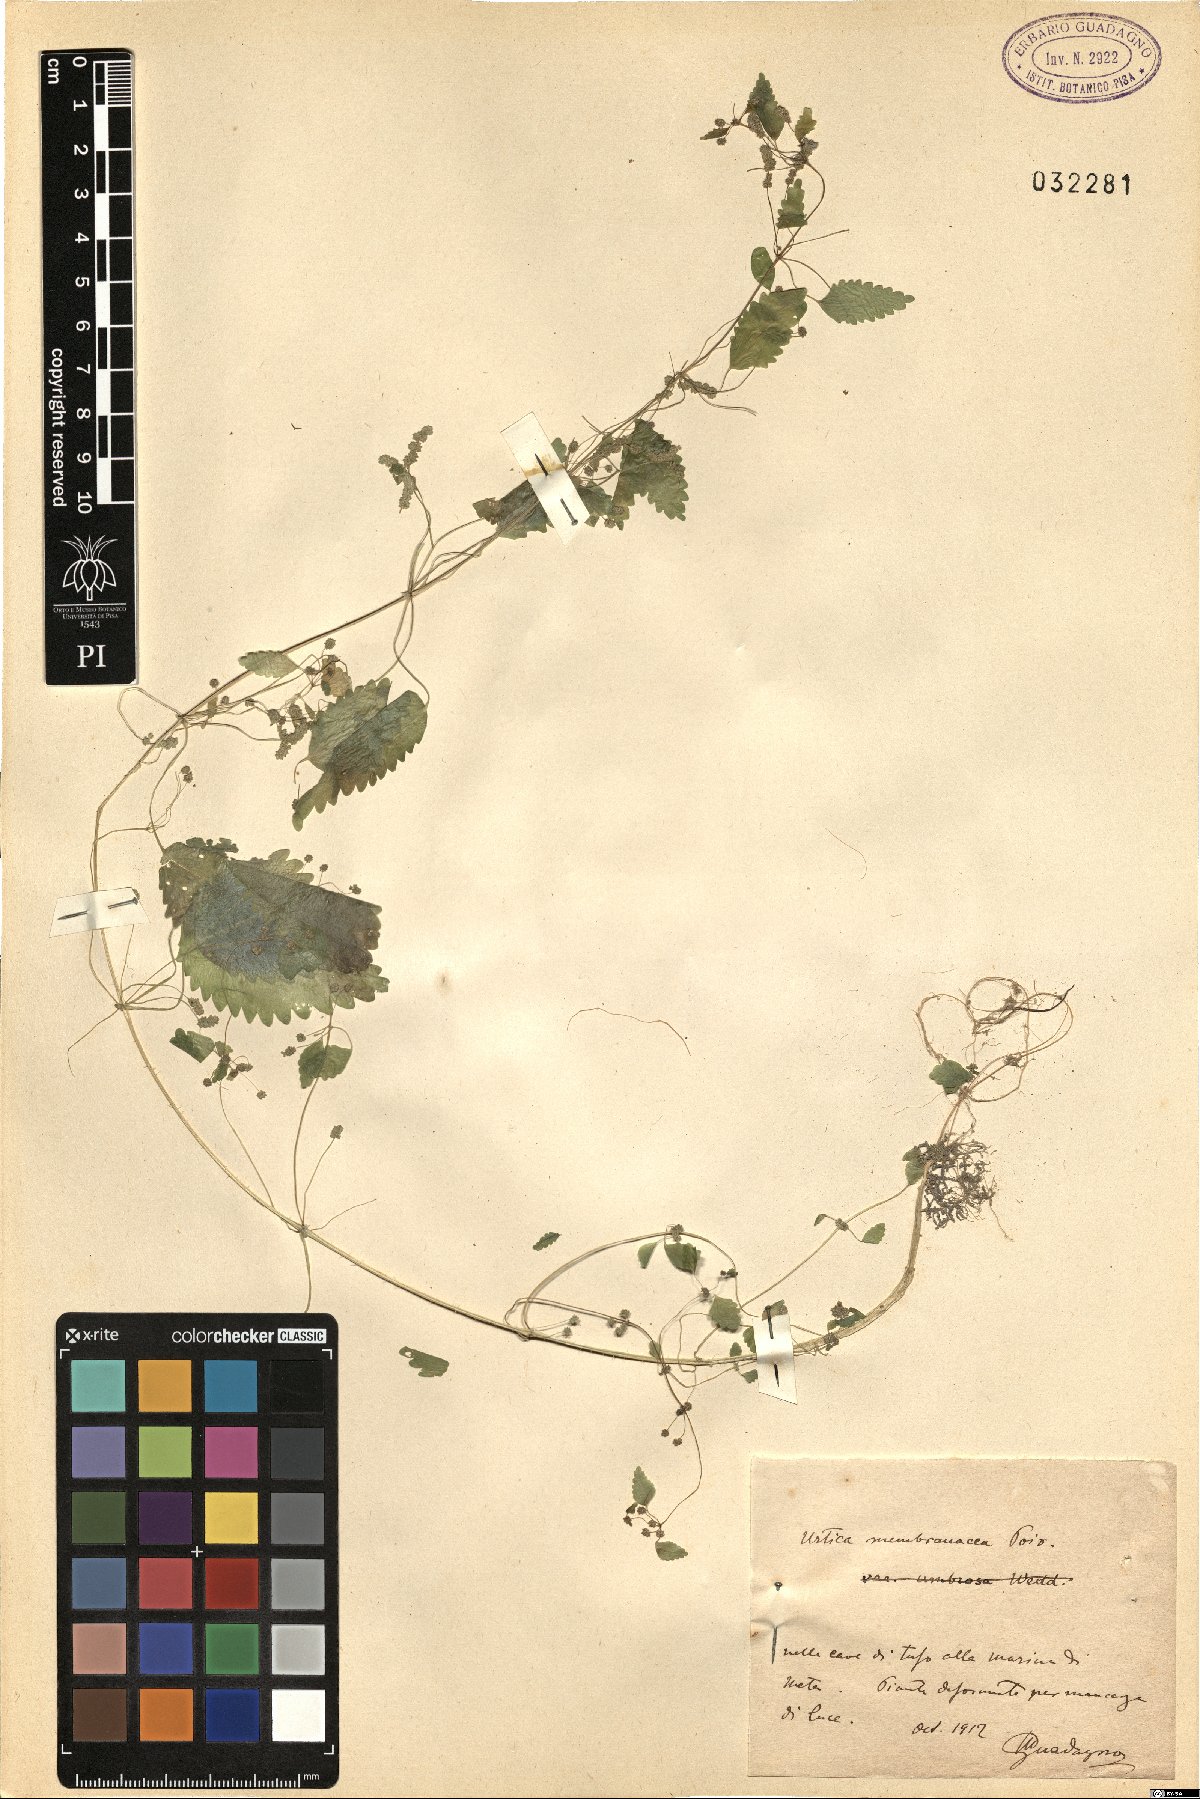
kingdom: Plantae
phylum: Tracheophyta
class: Magnoliopsida
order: Rosales
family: Urticaceae
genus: Urtica
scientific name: Urtica membranacea
